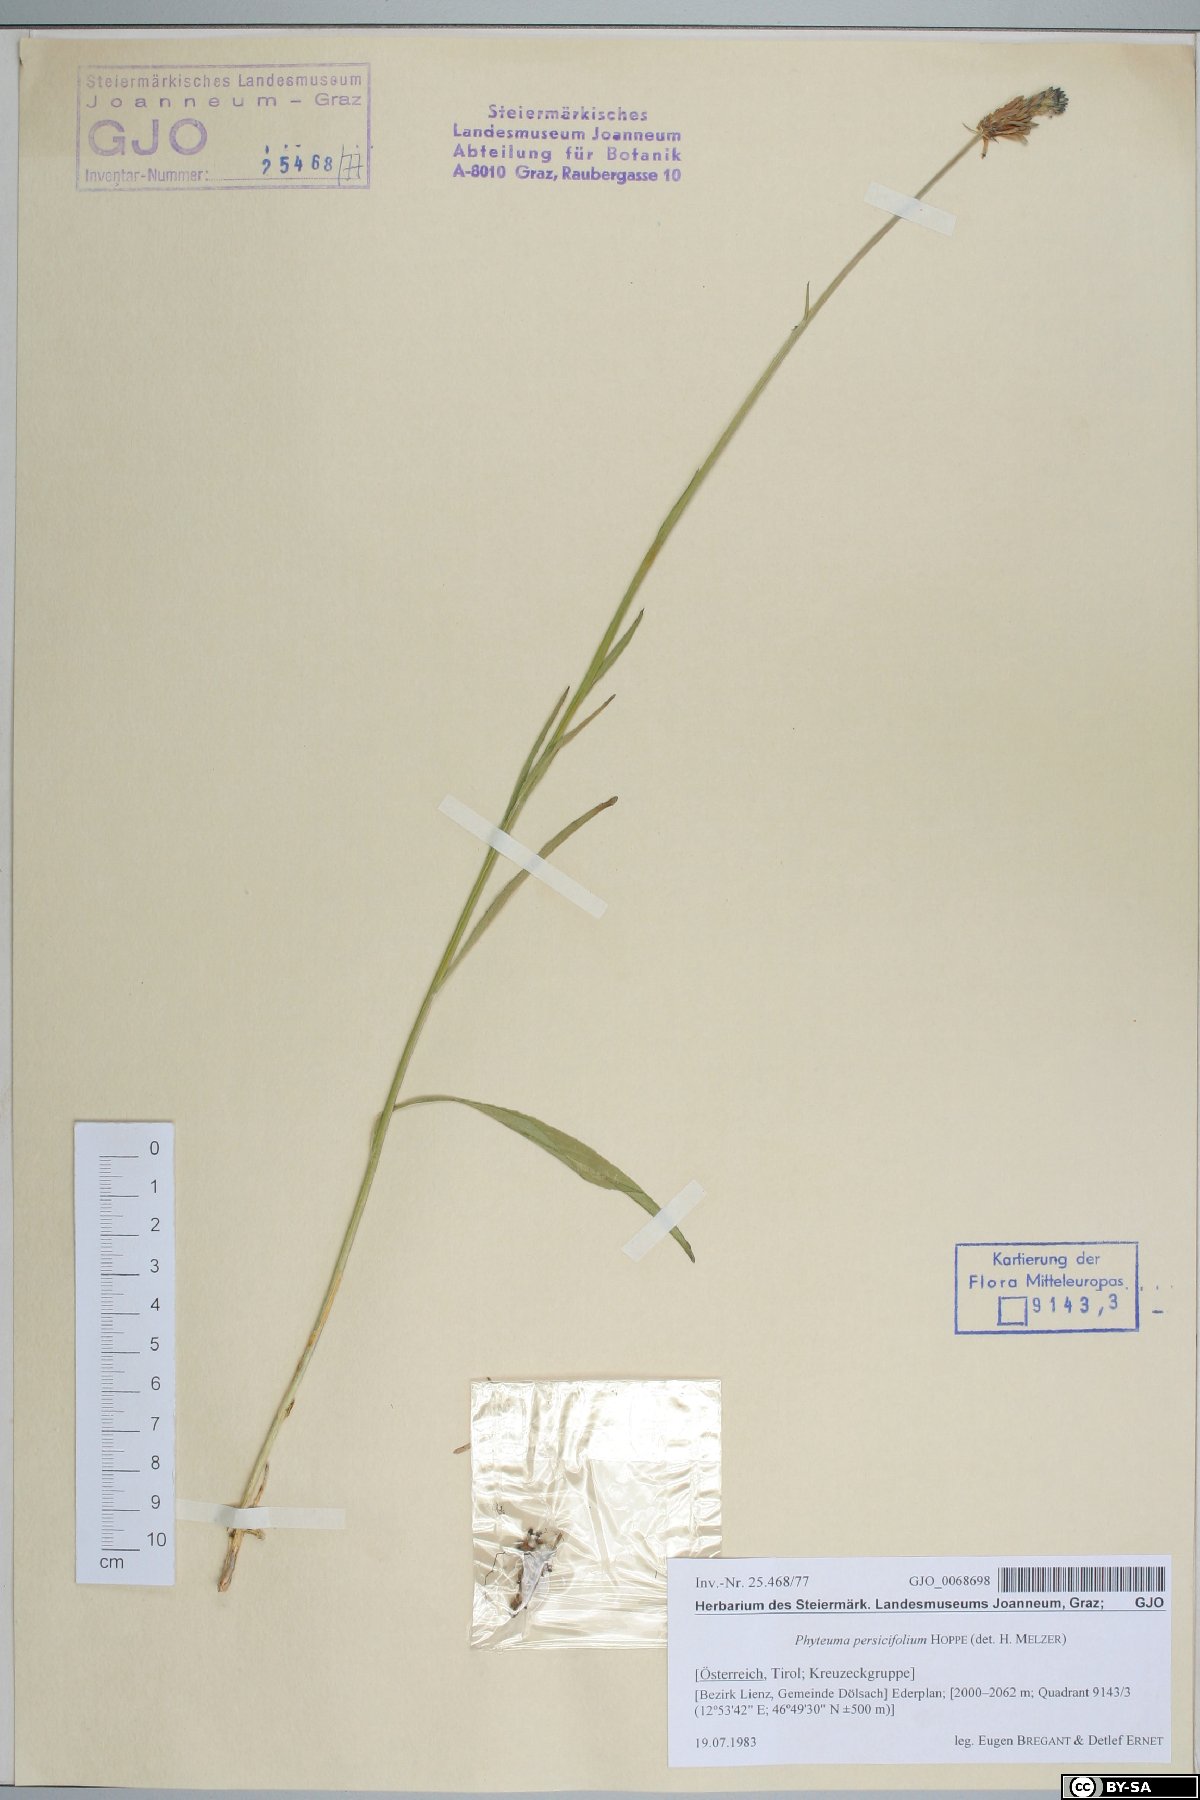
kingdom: Plantae
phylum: Tracheophyta
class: Magnoliopsida
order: Asterales
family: Campanulaceae
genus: Phyteuma
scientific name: Phyteuma persicifolium
